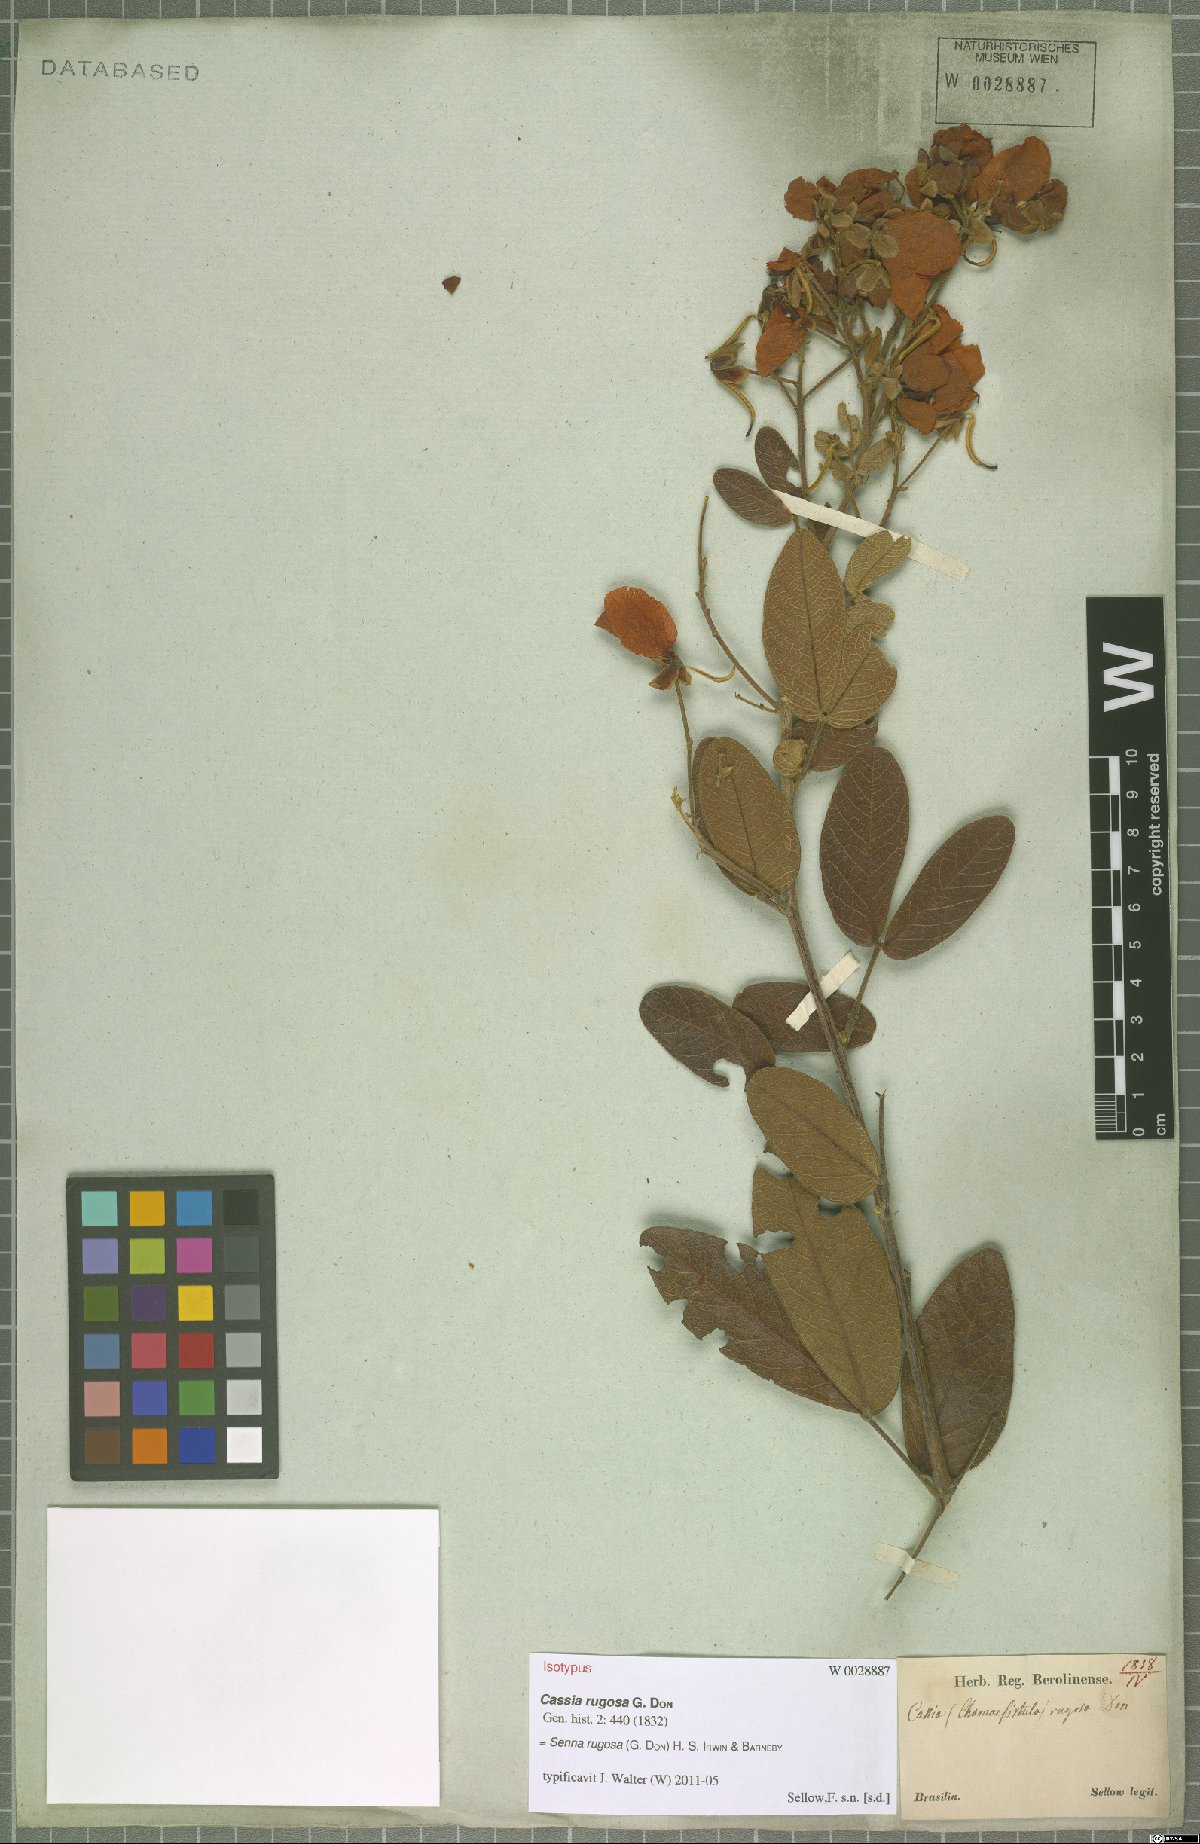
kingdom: Plantae
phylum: Tracheophyta
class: Magnoliopsida
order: Fabales
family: Fabaceae
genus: Senna
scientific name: Senna rugosa
